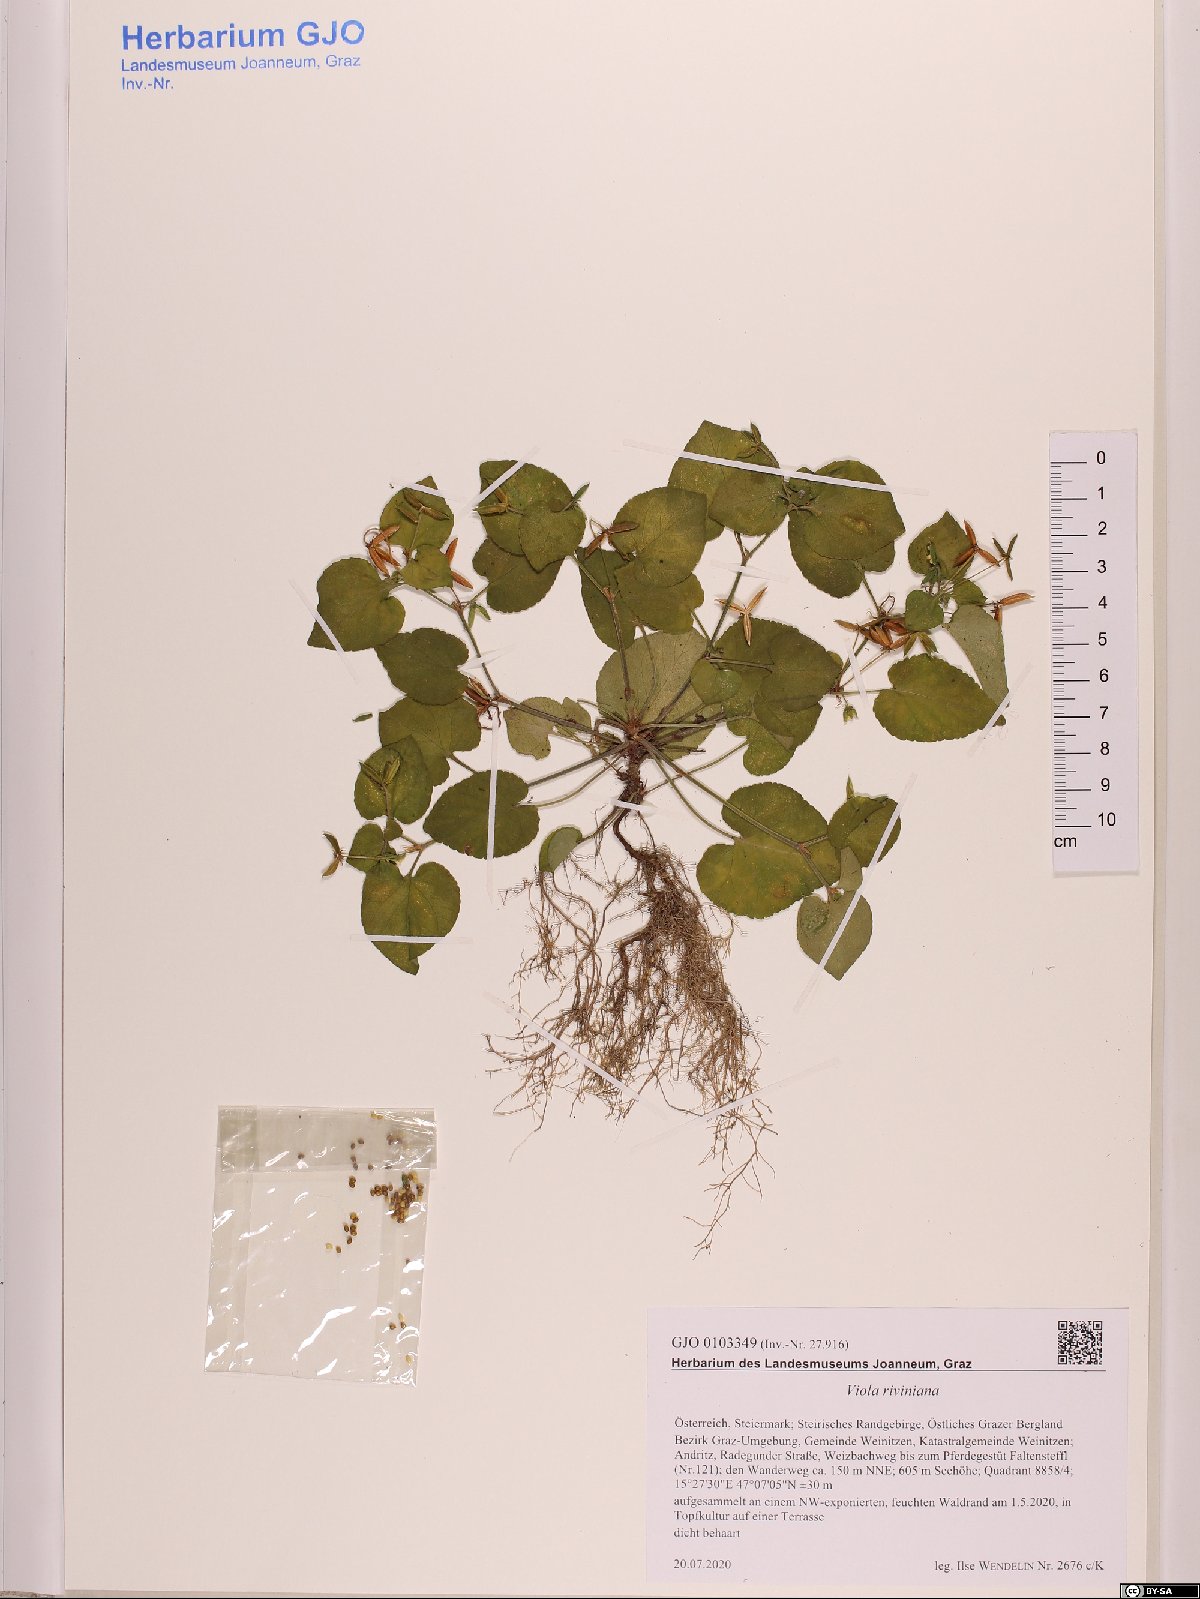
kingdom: Plantae
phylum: Tracheophyta
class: Magnoliopsida
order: Malpighiales
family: Violaceae
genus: Viola
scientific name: Viola riviniana
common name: Common dog-violet
